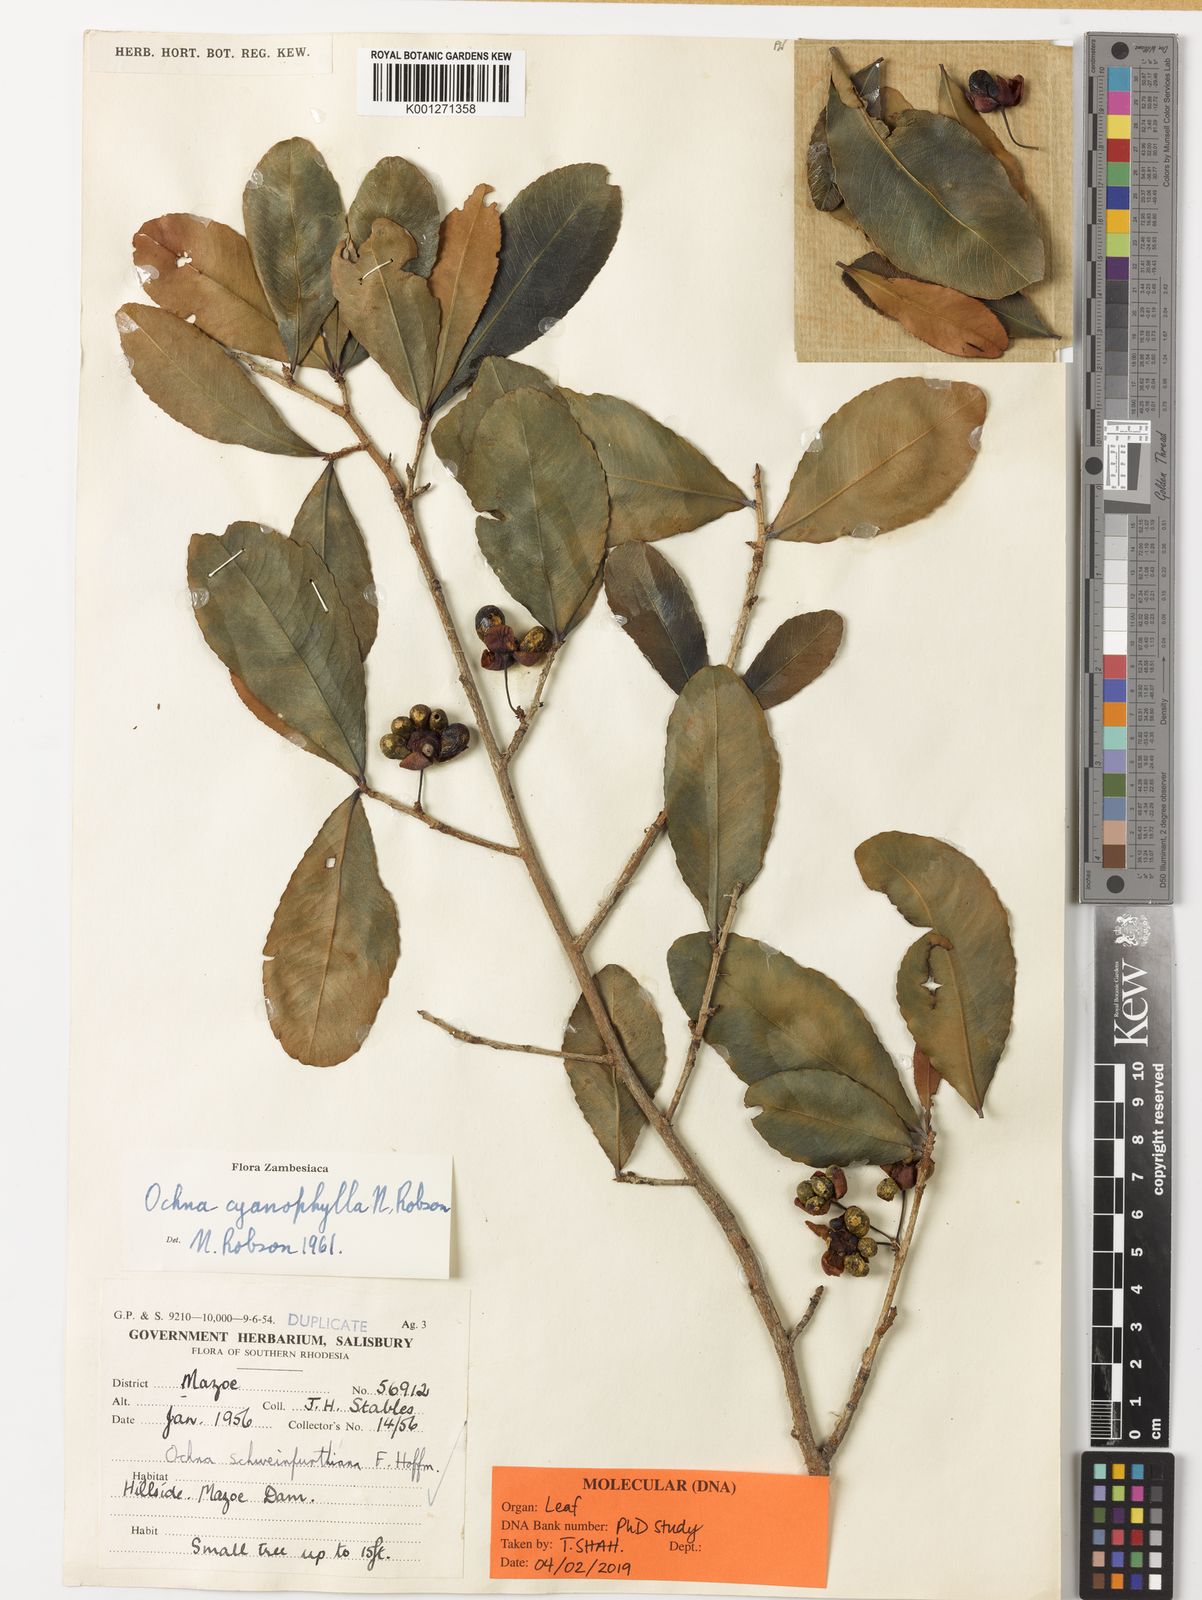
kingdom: Plantae
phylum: Tracheophyta
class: Magnoliopsida
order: Malpighiales
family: Ochnaceae
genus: Ochna
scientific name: Ochna cyanophylla
